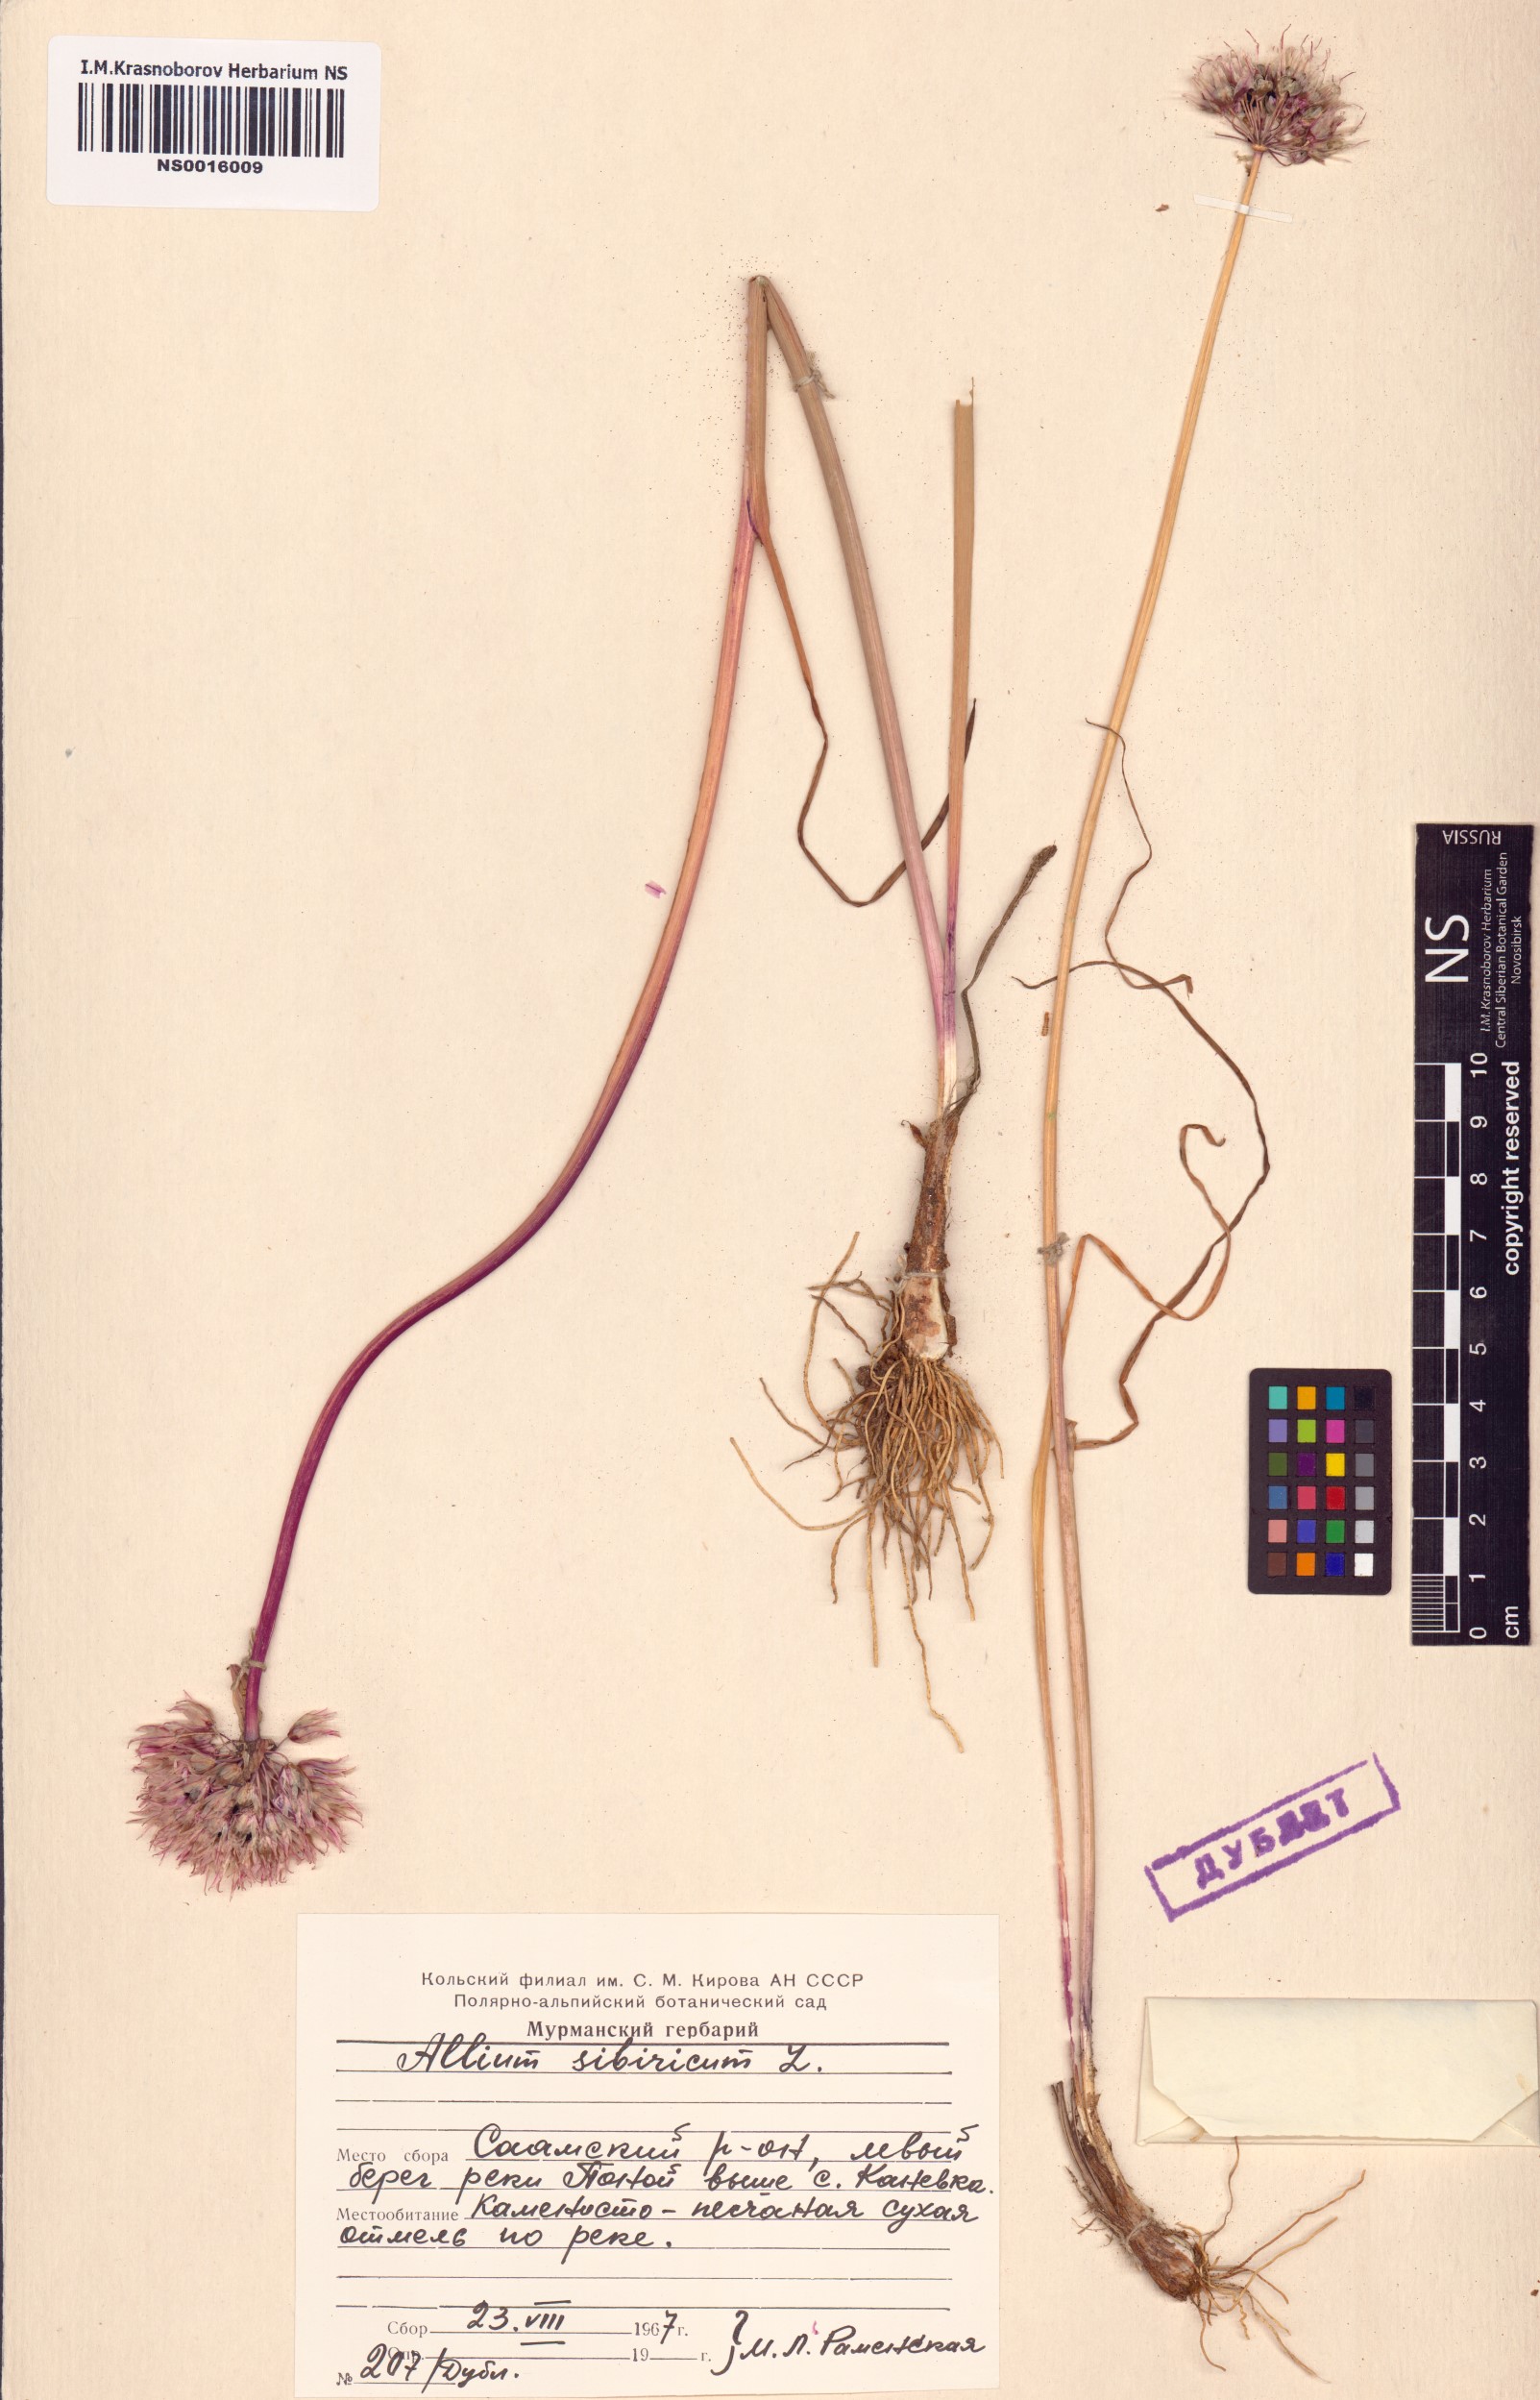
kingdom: Plantae
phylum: Tracheophyta
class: Liliopsida
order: Asparagales
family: Amaryllidaceae
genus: Allium
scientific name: Allium schoenoprasum
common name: Chives
